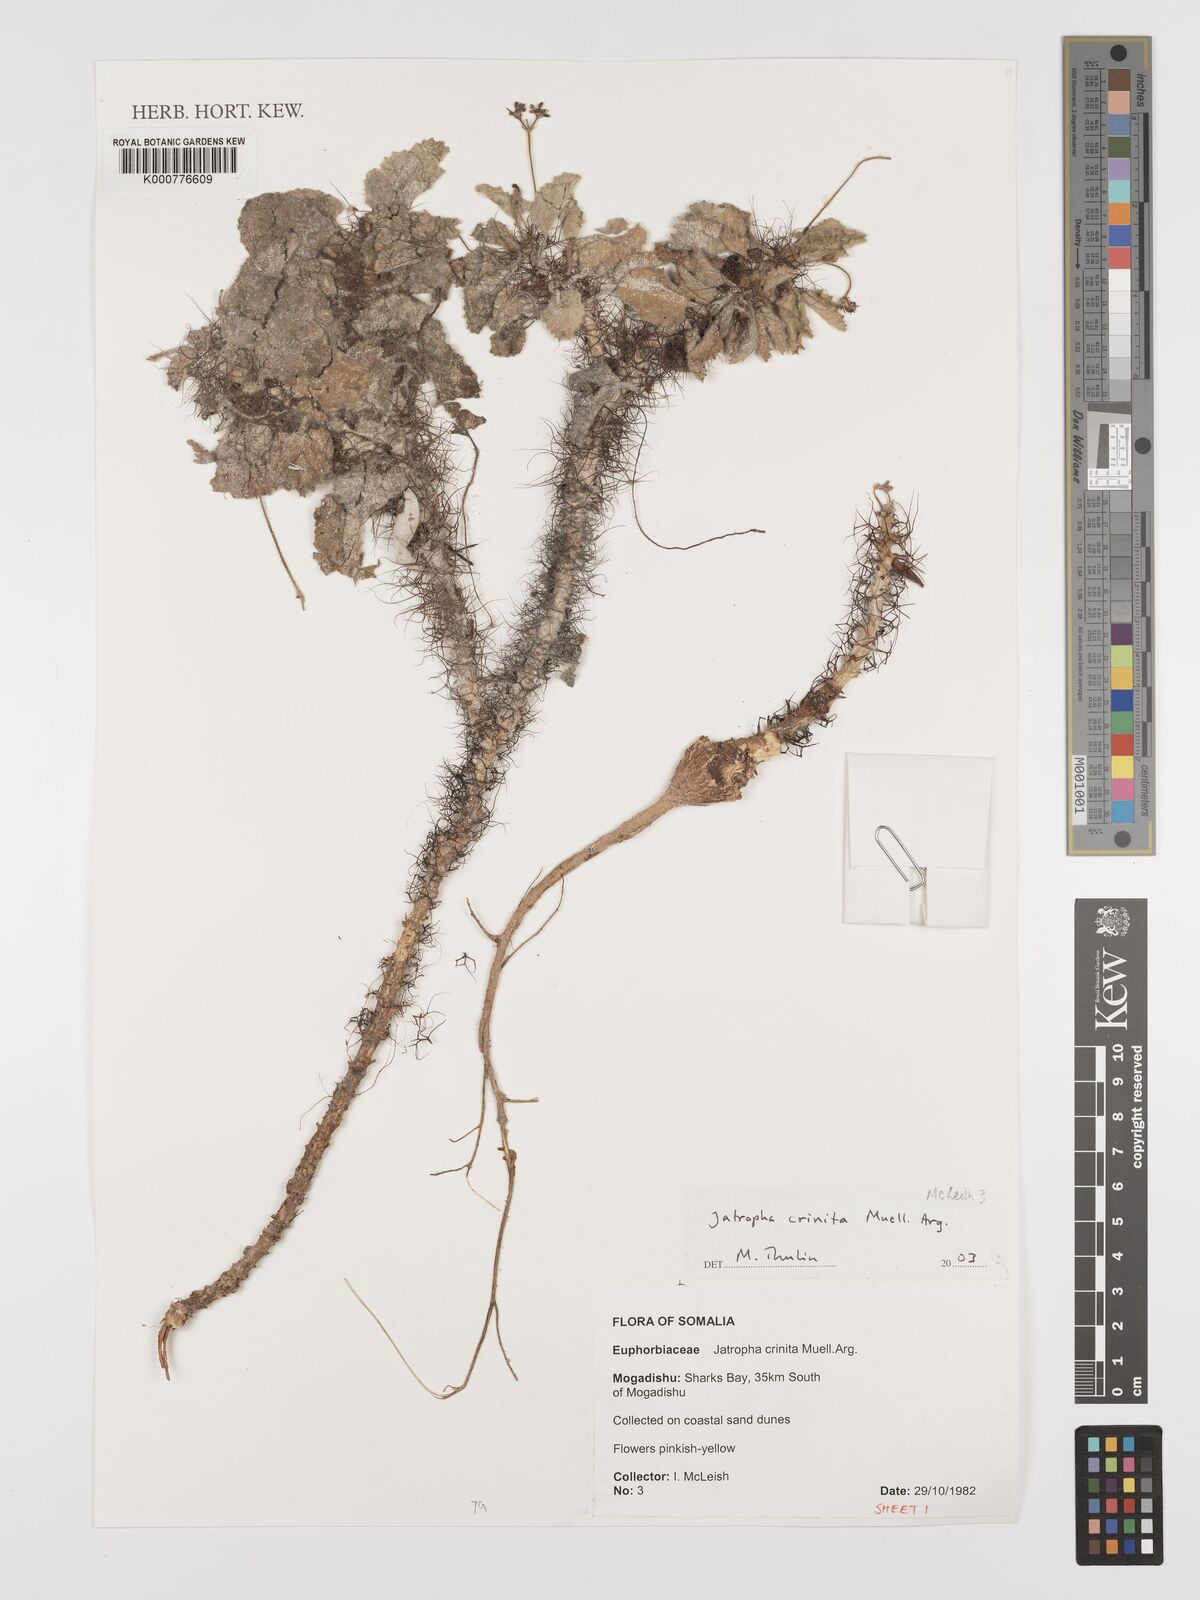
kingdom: Plantae
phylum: Tracheophyta
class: Magnoliopsida
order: Malpighiales
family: Euphorbiaceae
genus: Jatropha
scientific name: Jatropha
